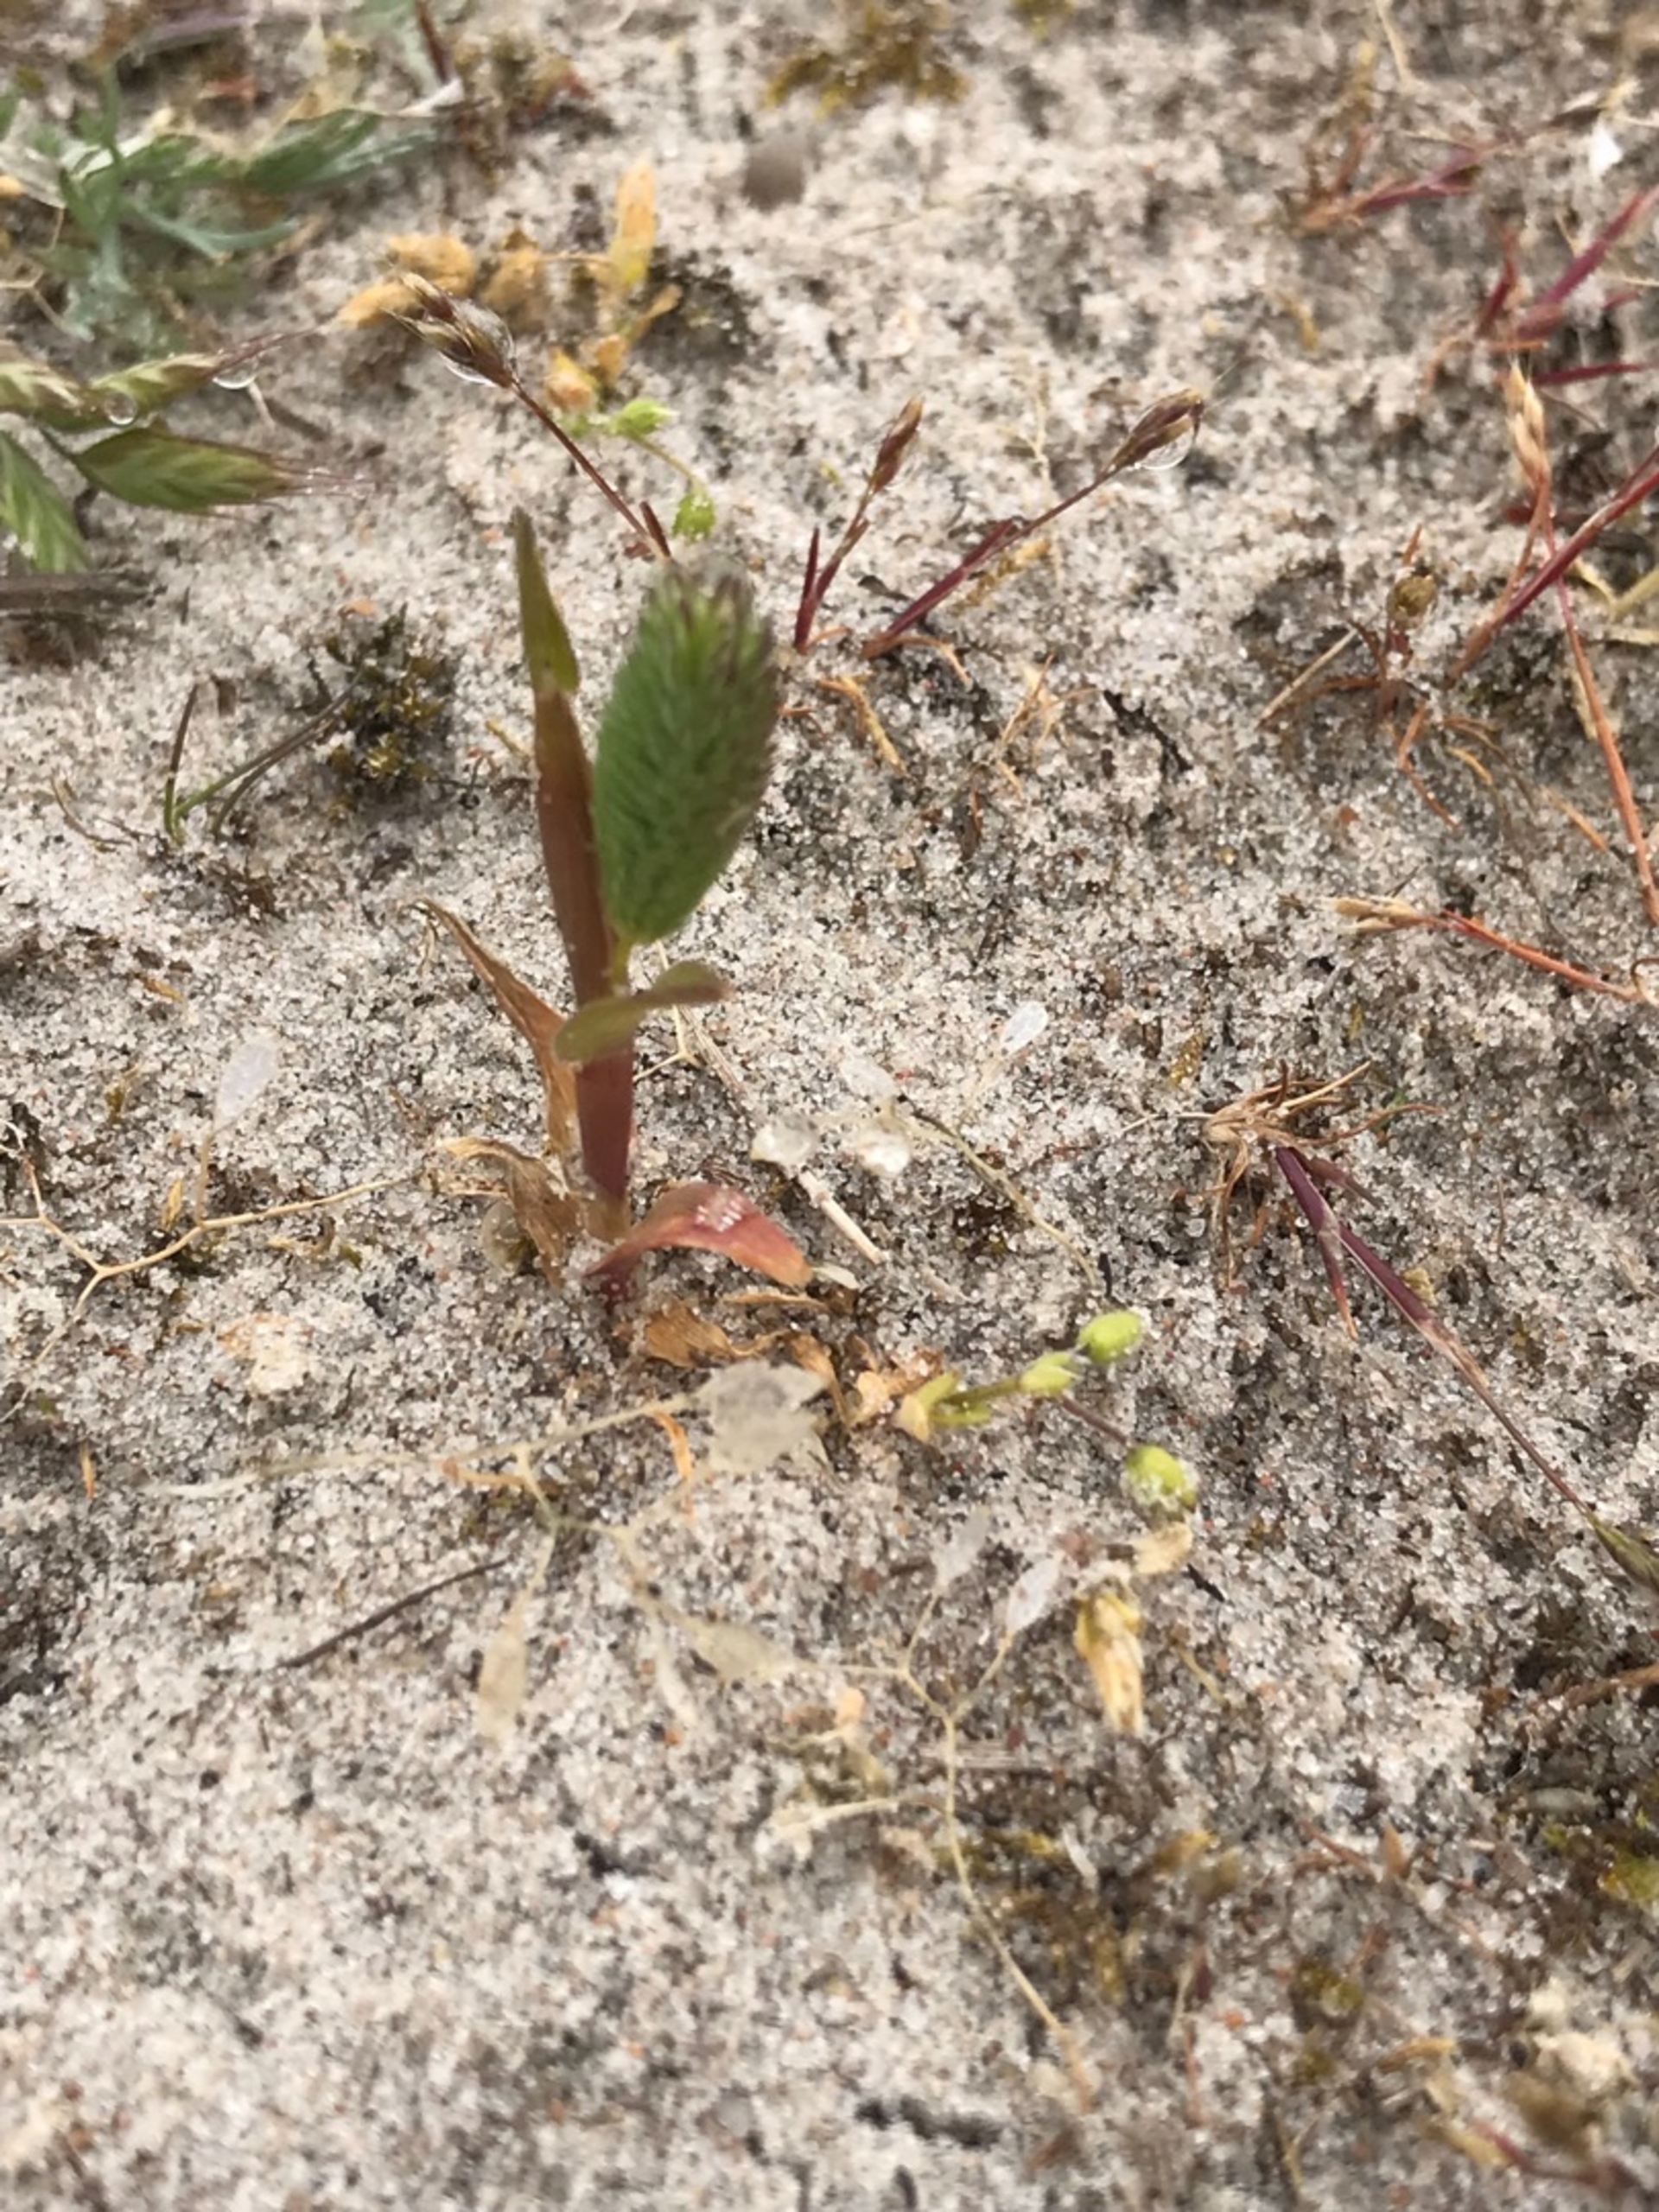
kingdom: Plantae
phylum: Tracheophyta
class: Liliopsida
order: Poales
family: Poaceae
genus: Phleum
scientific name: Phleum arenarium
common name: Sand-rottehale
